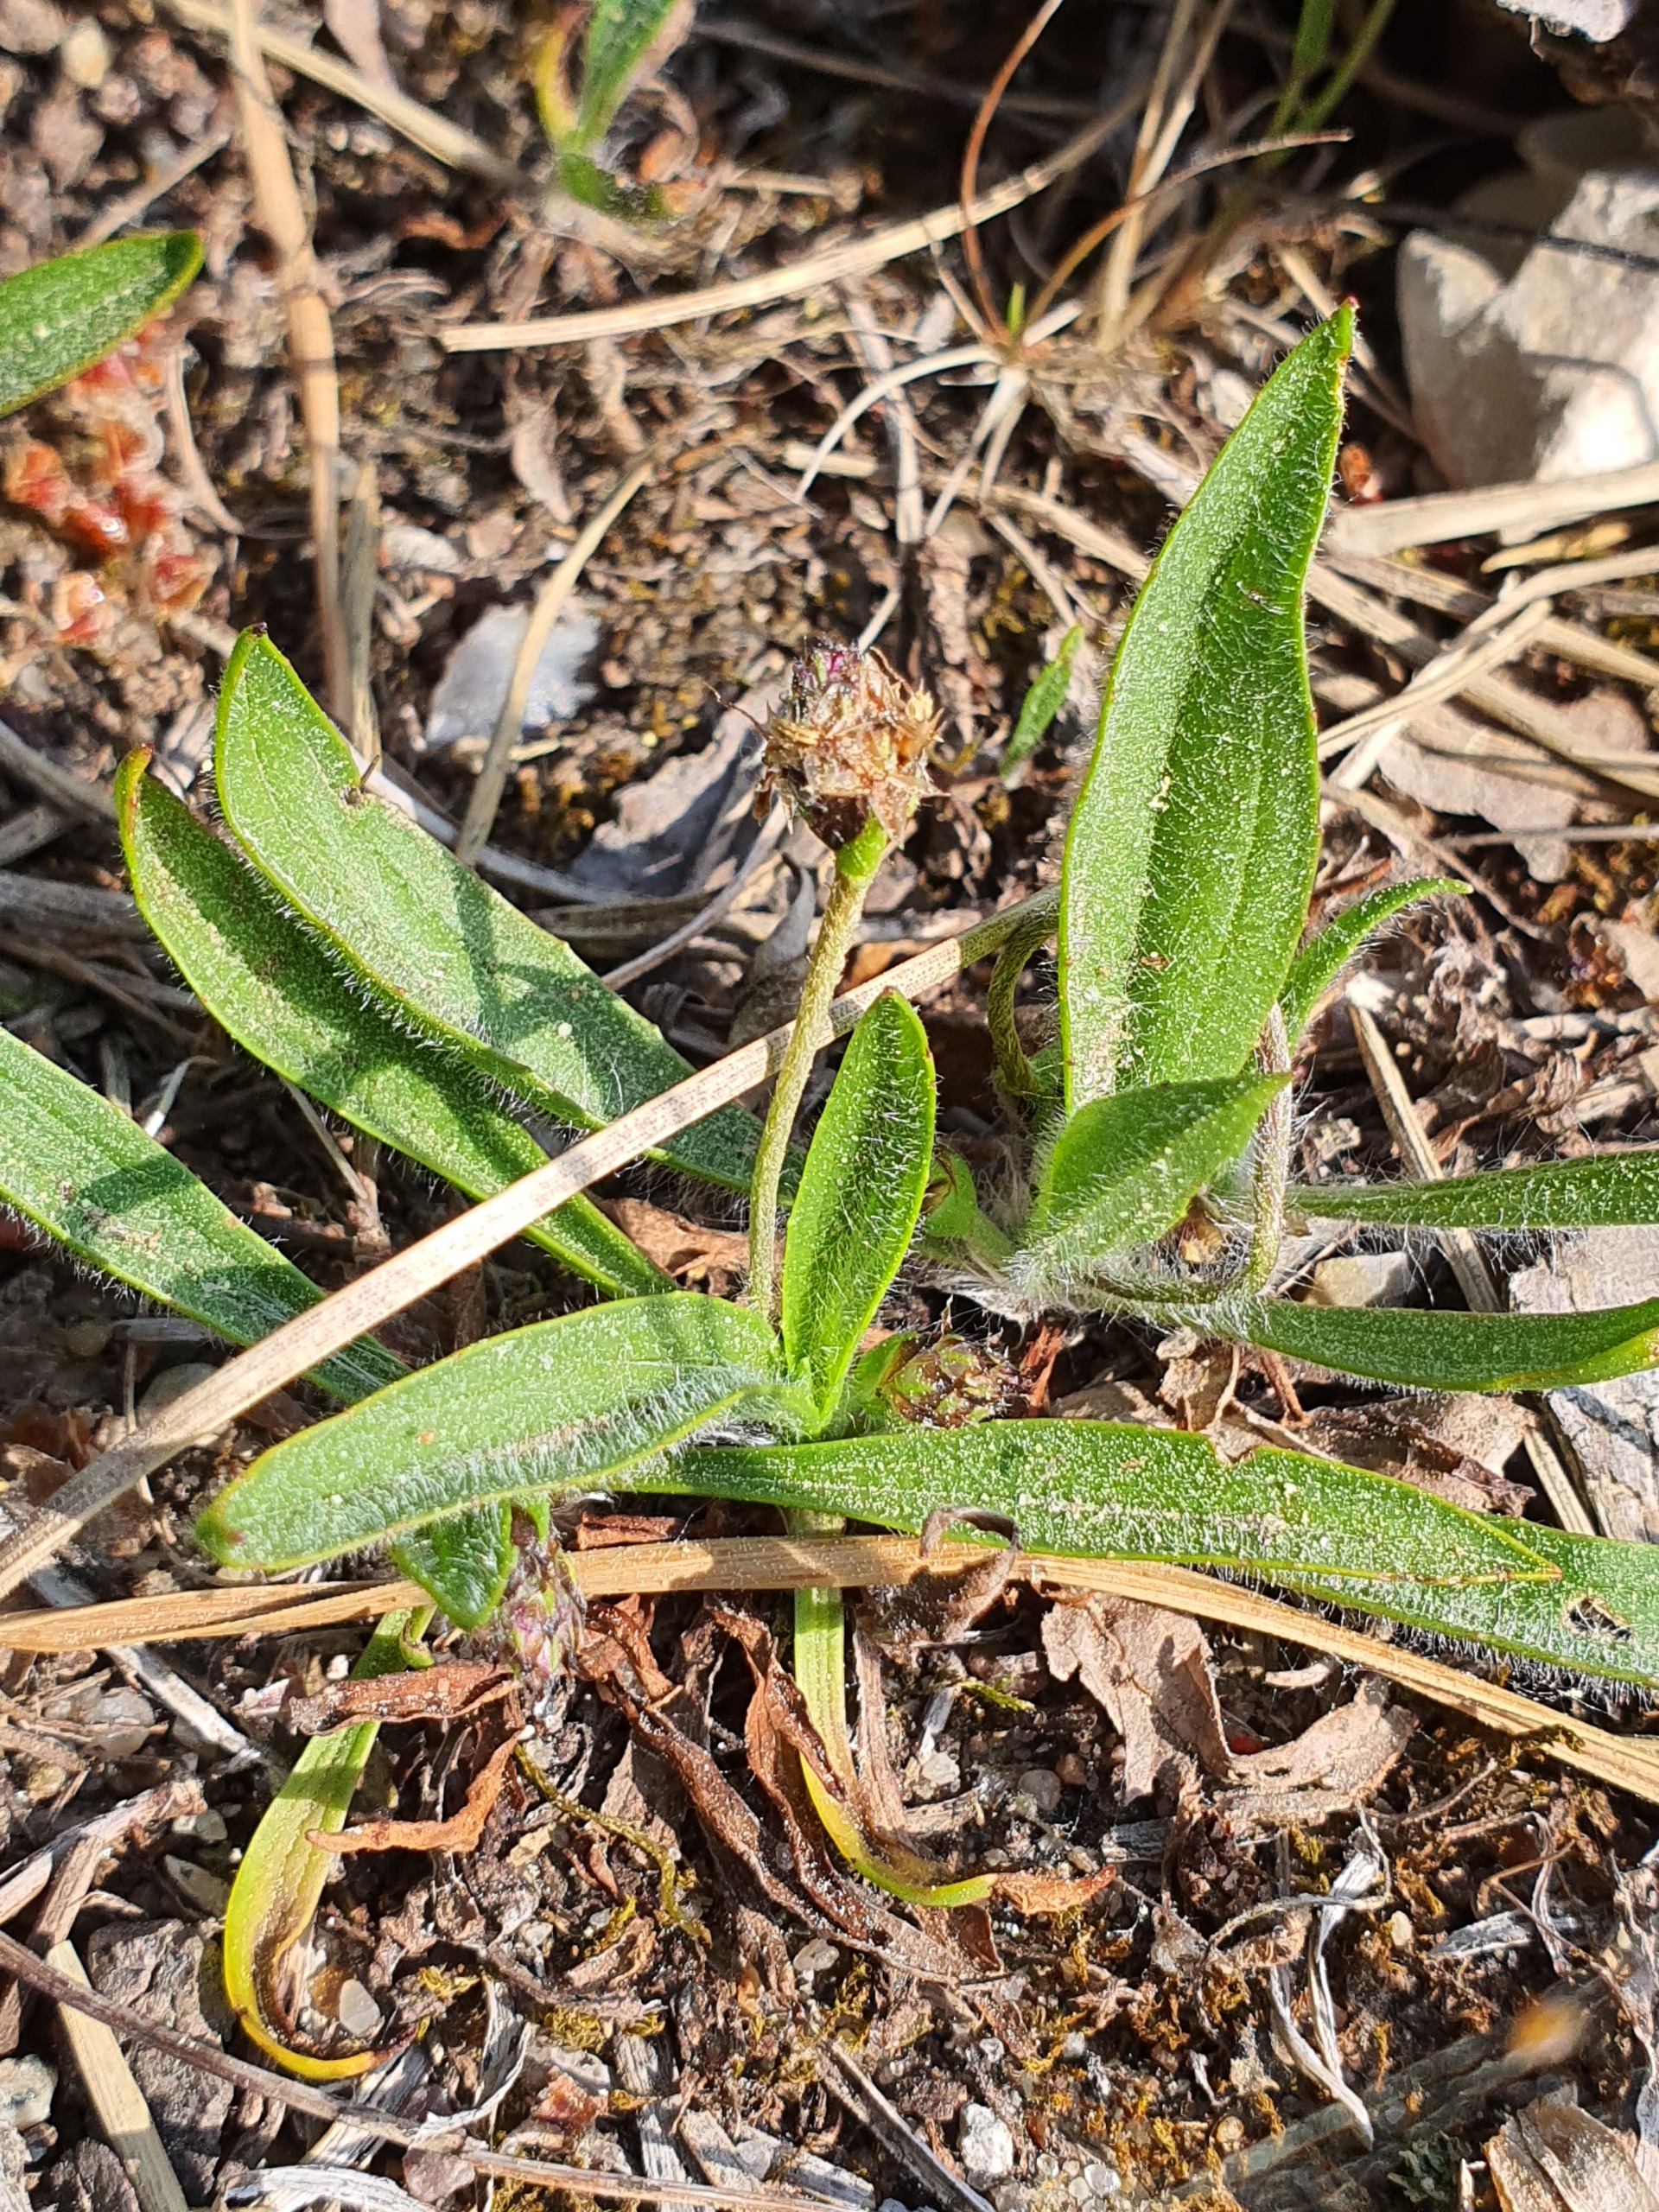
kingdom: Plantae
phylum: Tracheophyta
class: Magnoliopsida
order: Lamiales
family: Plantaginaceae
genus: Plantago
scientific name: Plantago lanceolata
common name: Lancet-vejbred
